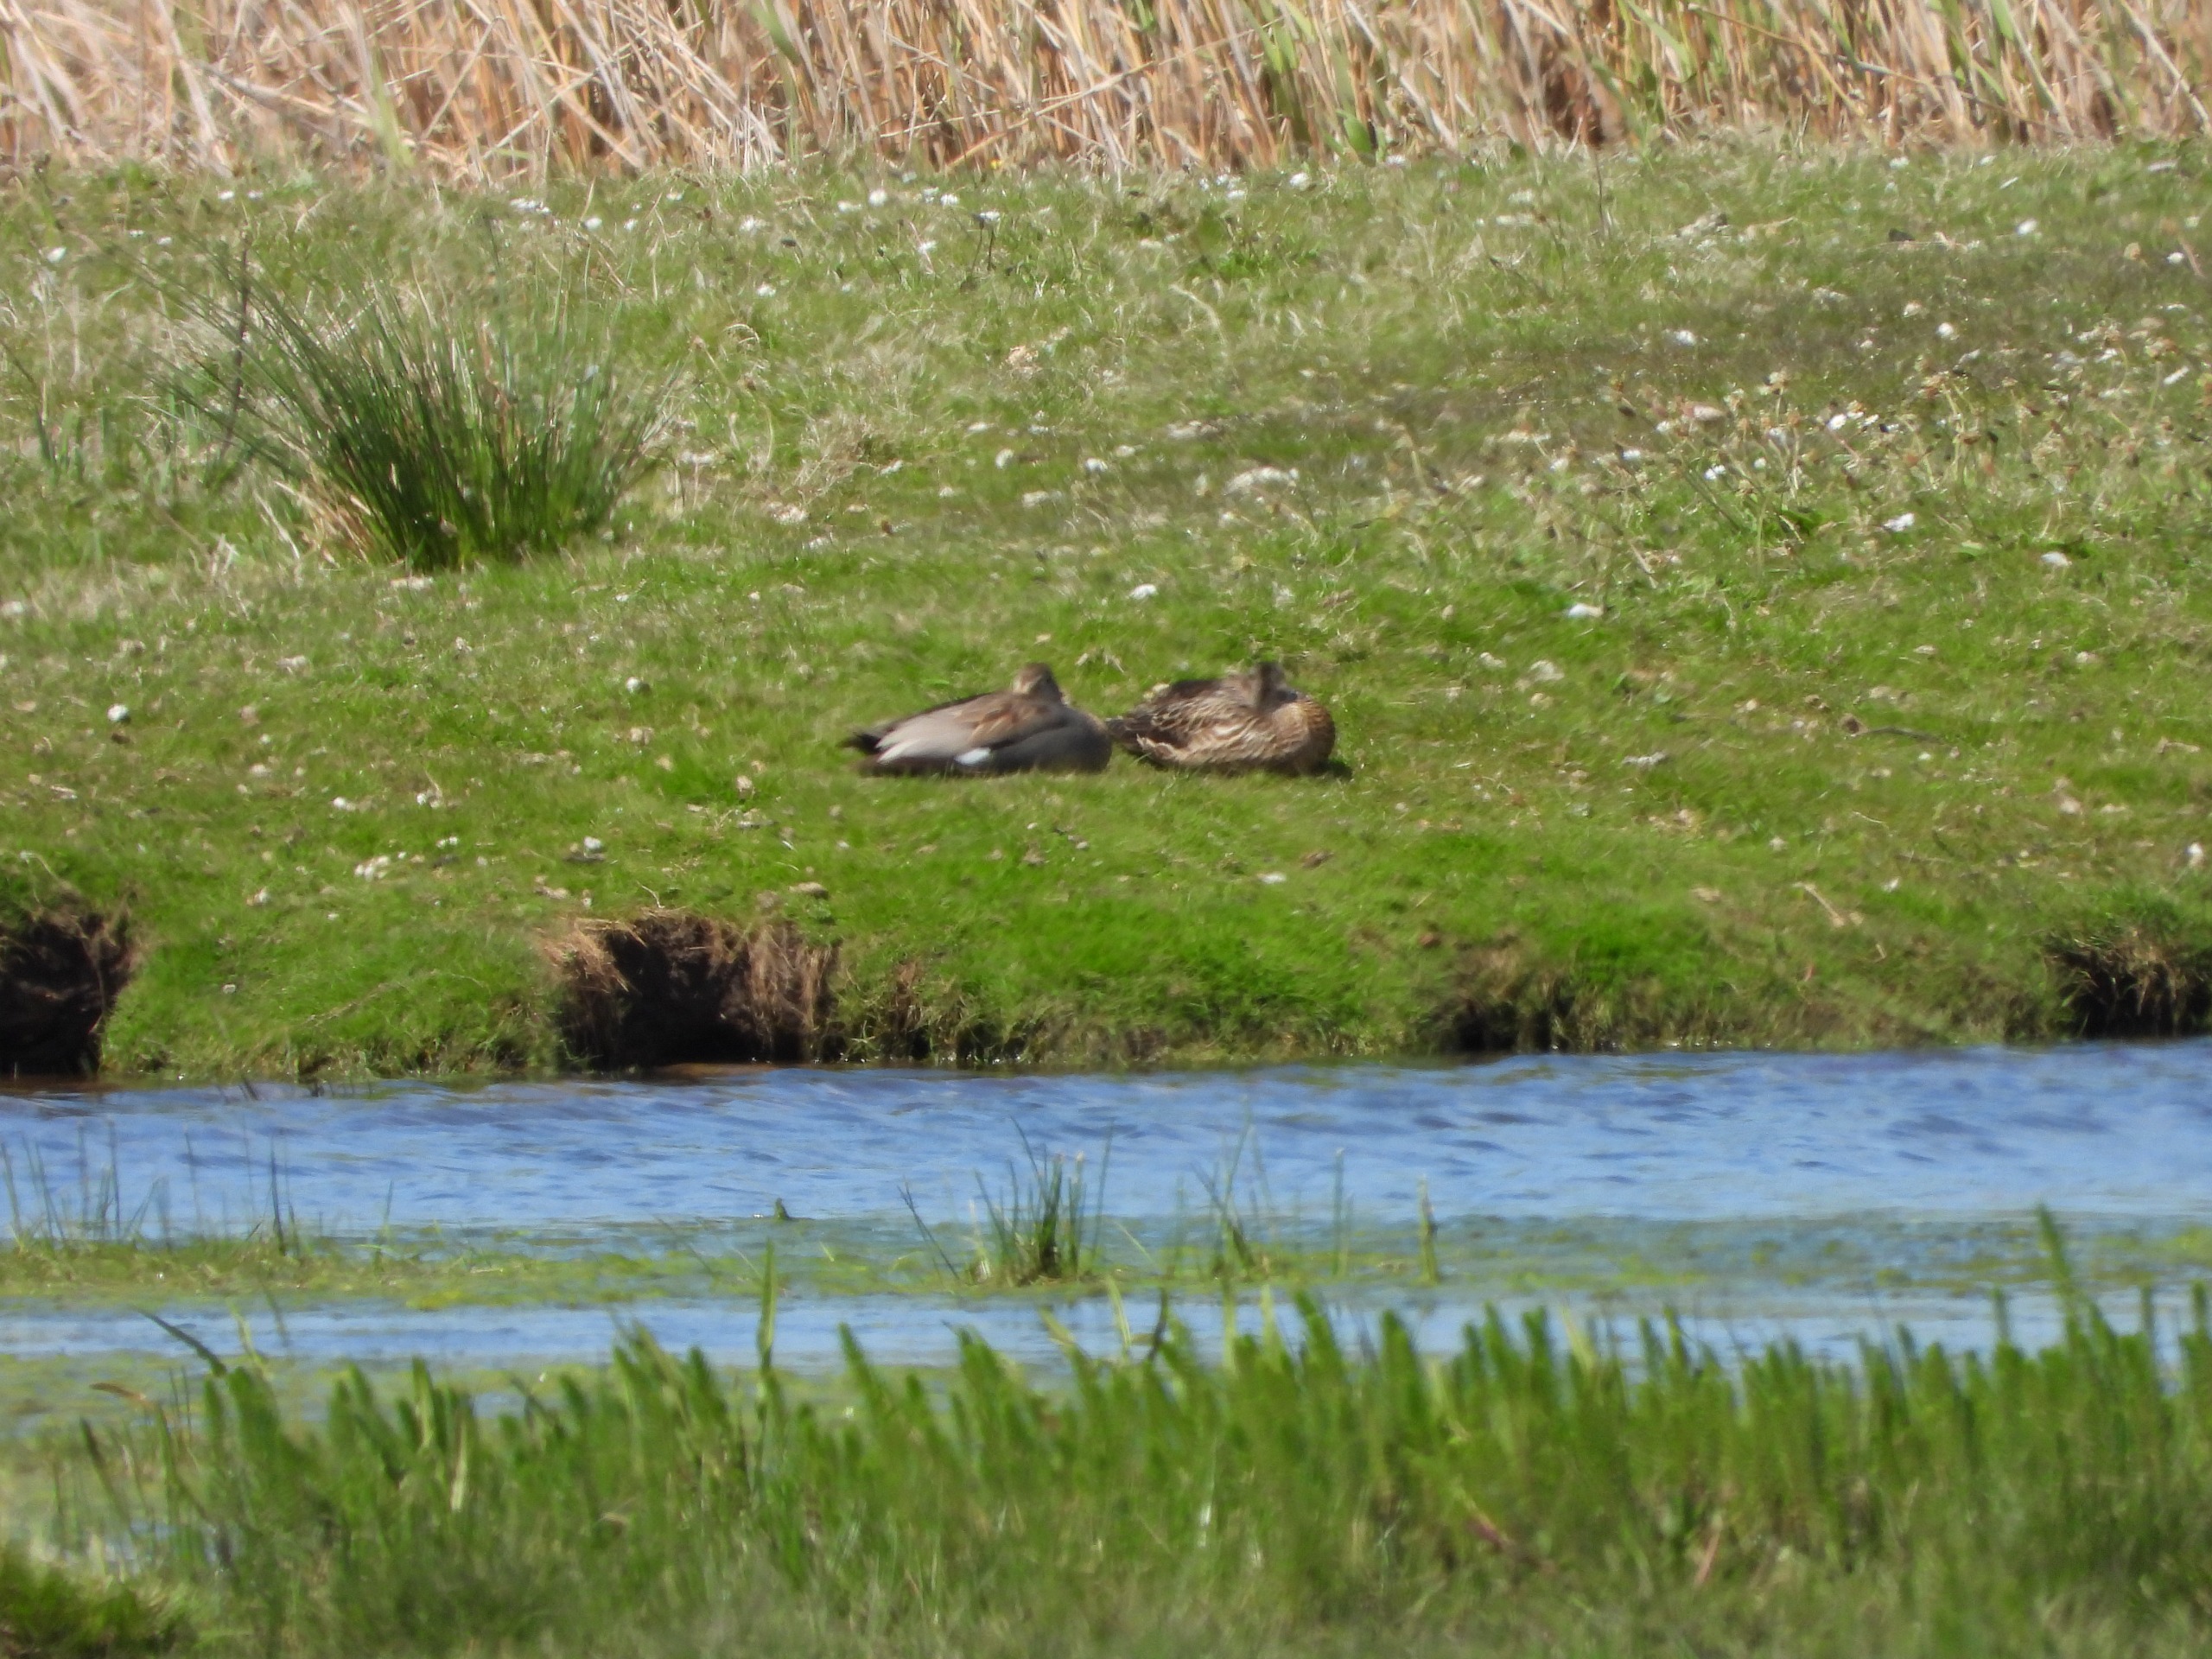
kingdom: Animalia
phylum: Chordata
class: Aves
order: Anseriformes
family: Anatidae
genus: Mareca
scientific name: Mareca strepera
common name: Knarand
